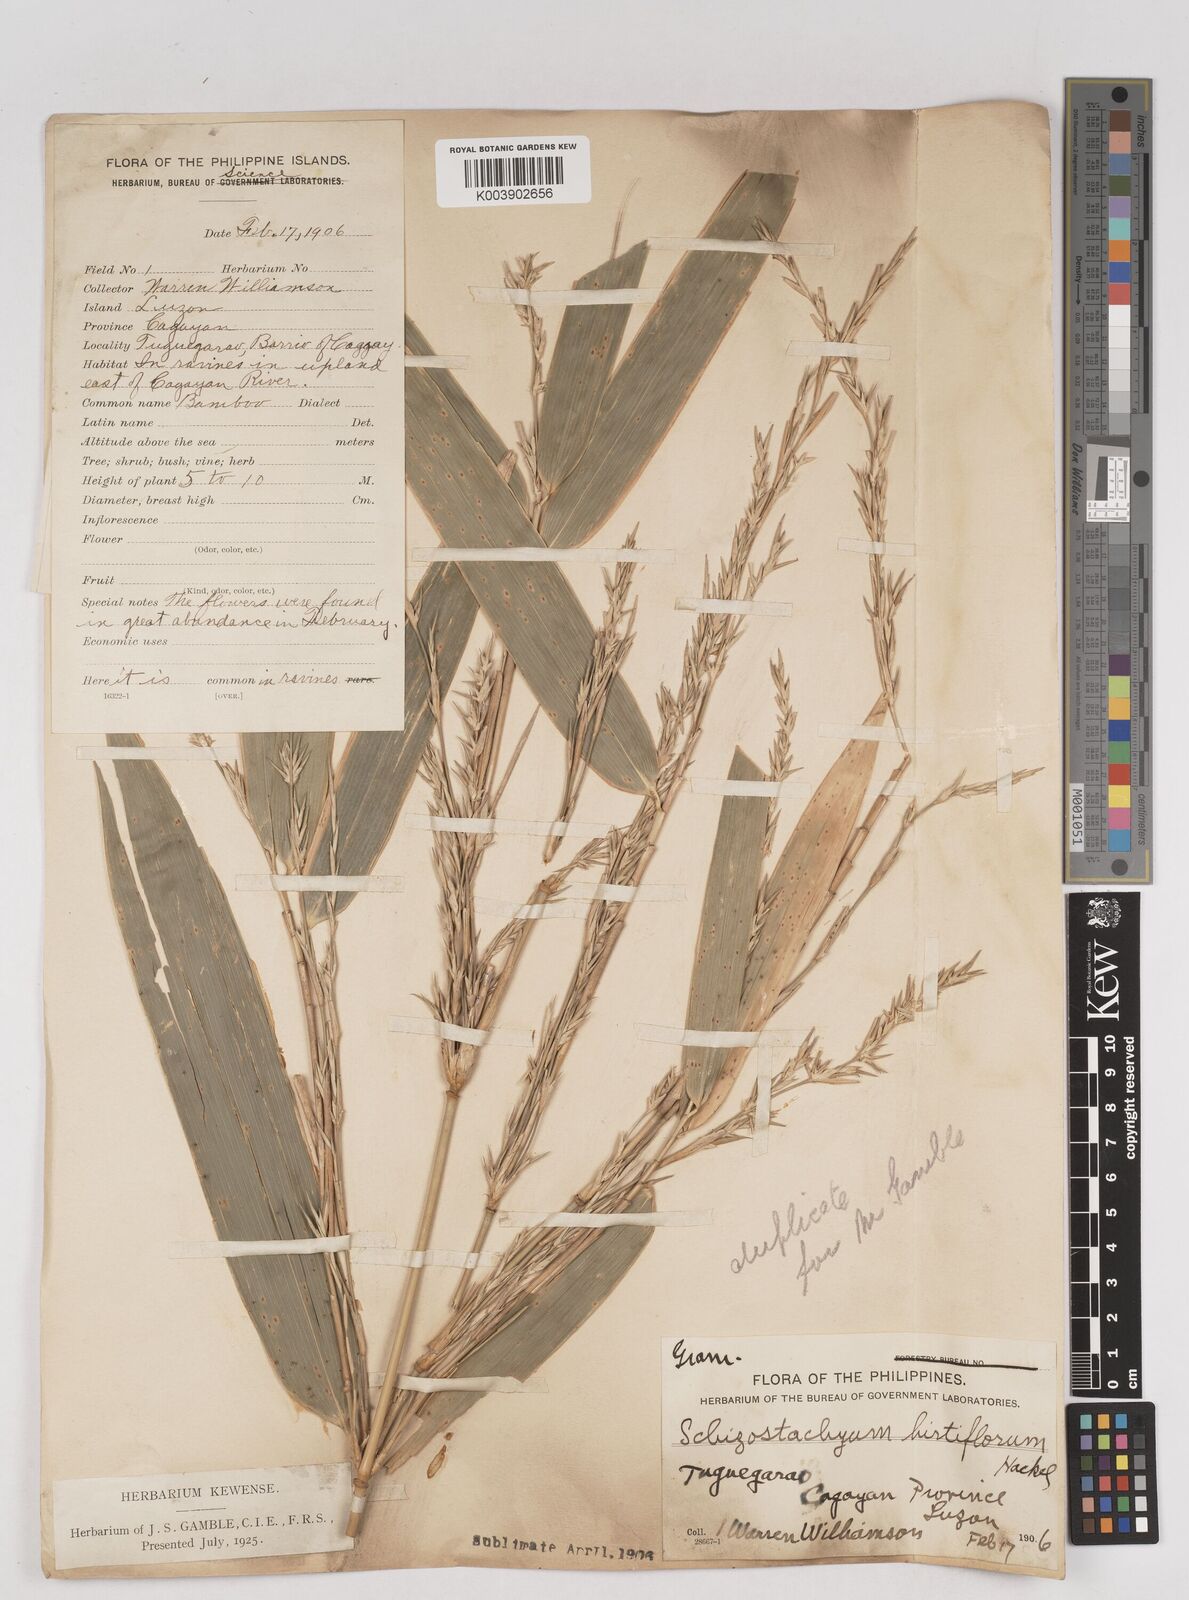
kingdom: Plantae
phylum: Tracheophyta
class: Liliopsida
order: Poales
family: Poaceae
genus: Schizostachyum
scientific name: Schizostachyum lumampao
